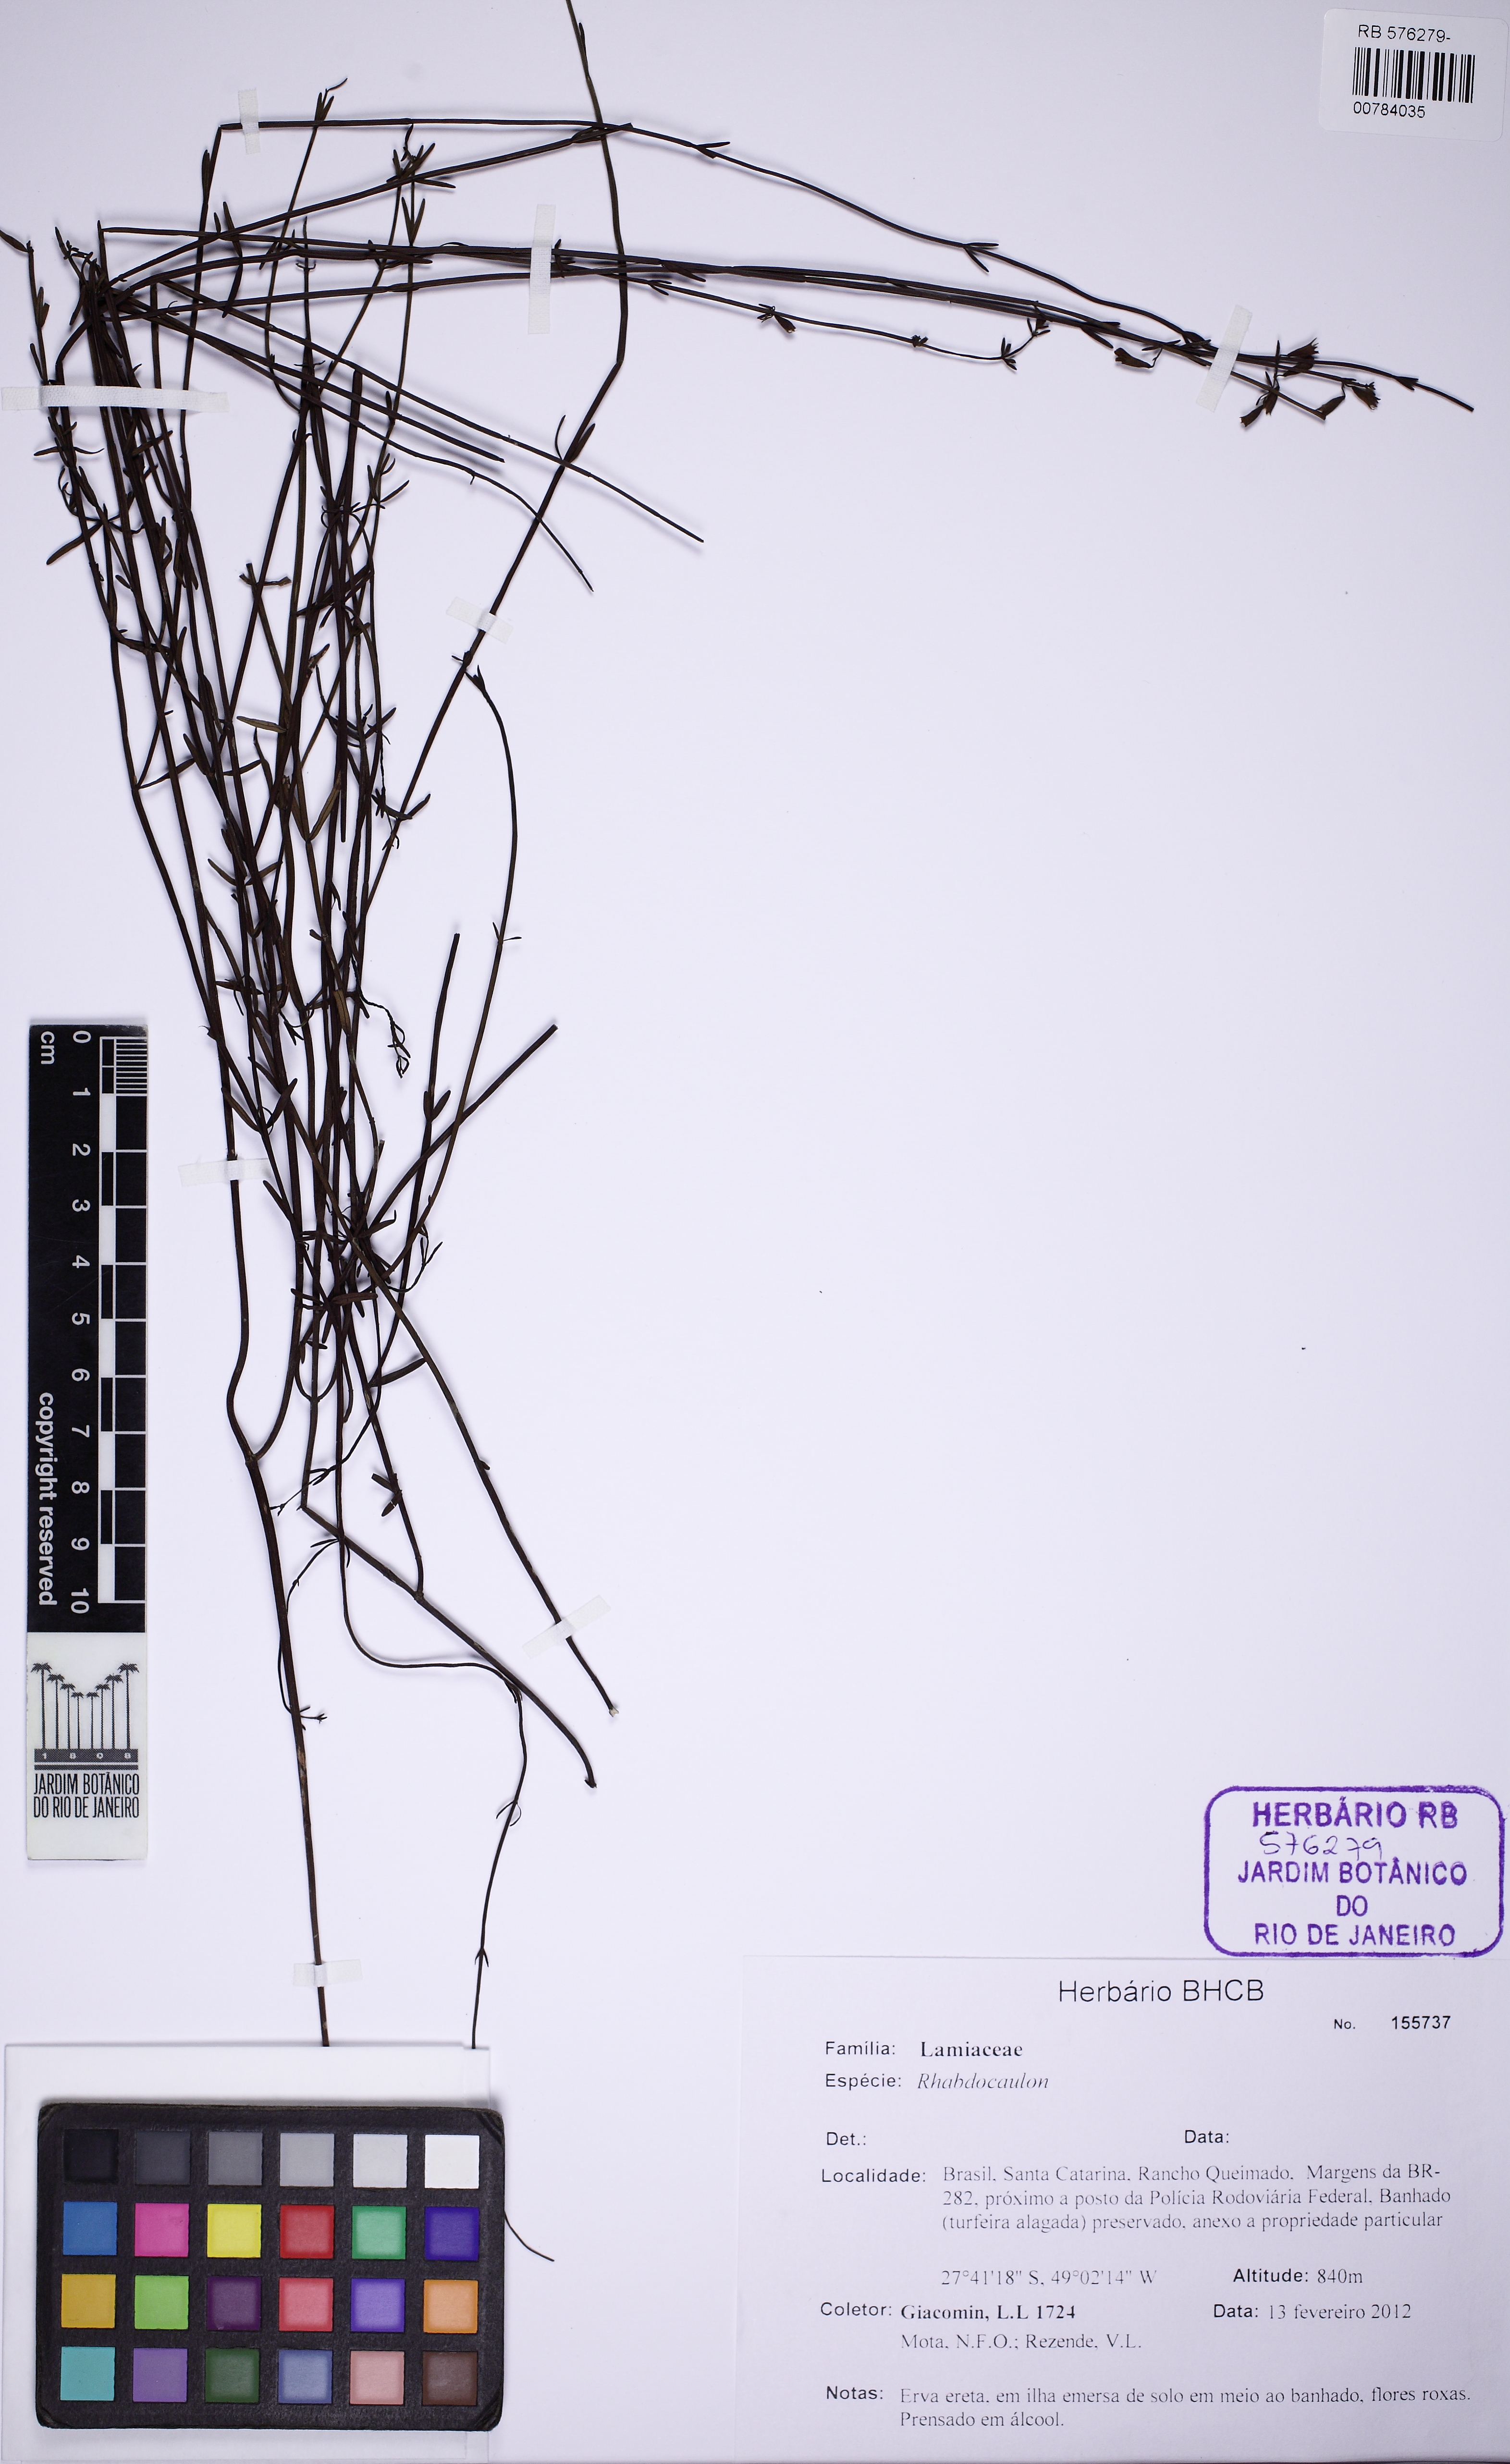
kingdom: Plantae
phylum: Tracheophyta
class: Magnoliopsida
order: Lamiales
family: Lamiaceae
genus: Rhabdocaulon
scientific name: Rhabdocaulon gracile
